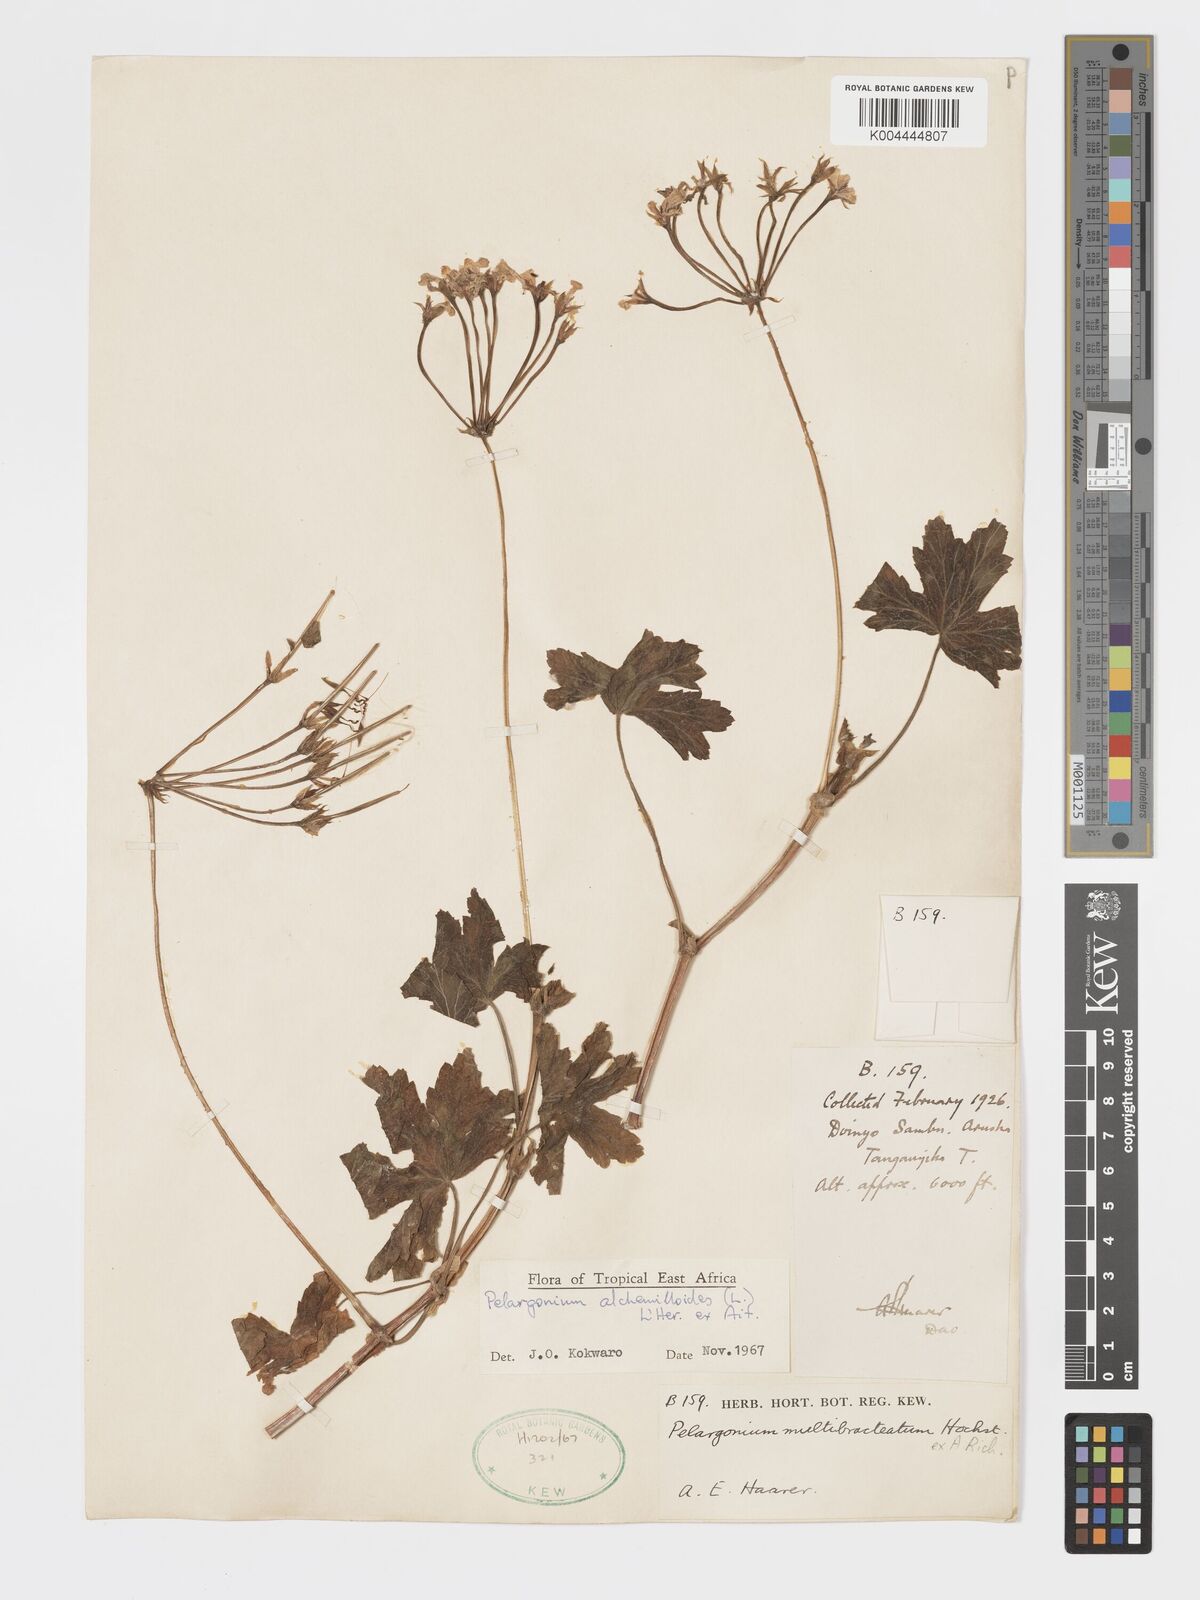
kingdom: Plantae
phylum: Tracheophyta
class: Magnoliopsida
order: Geraniales
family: Geraniaceae
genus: Pelargonium
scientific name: Pelargonium alchemilloides
